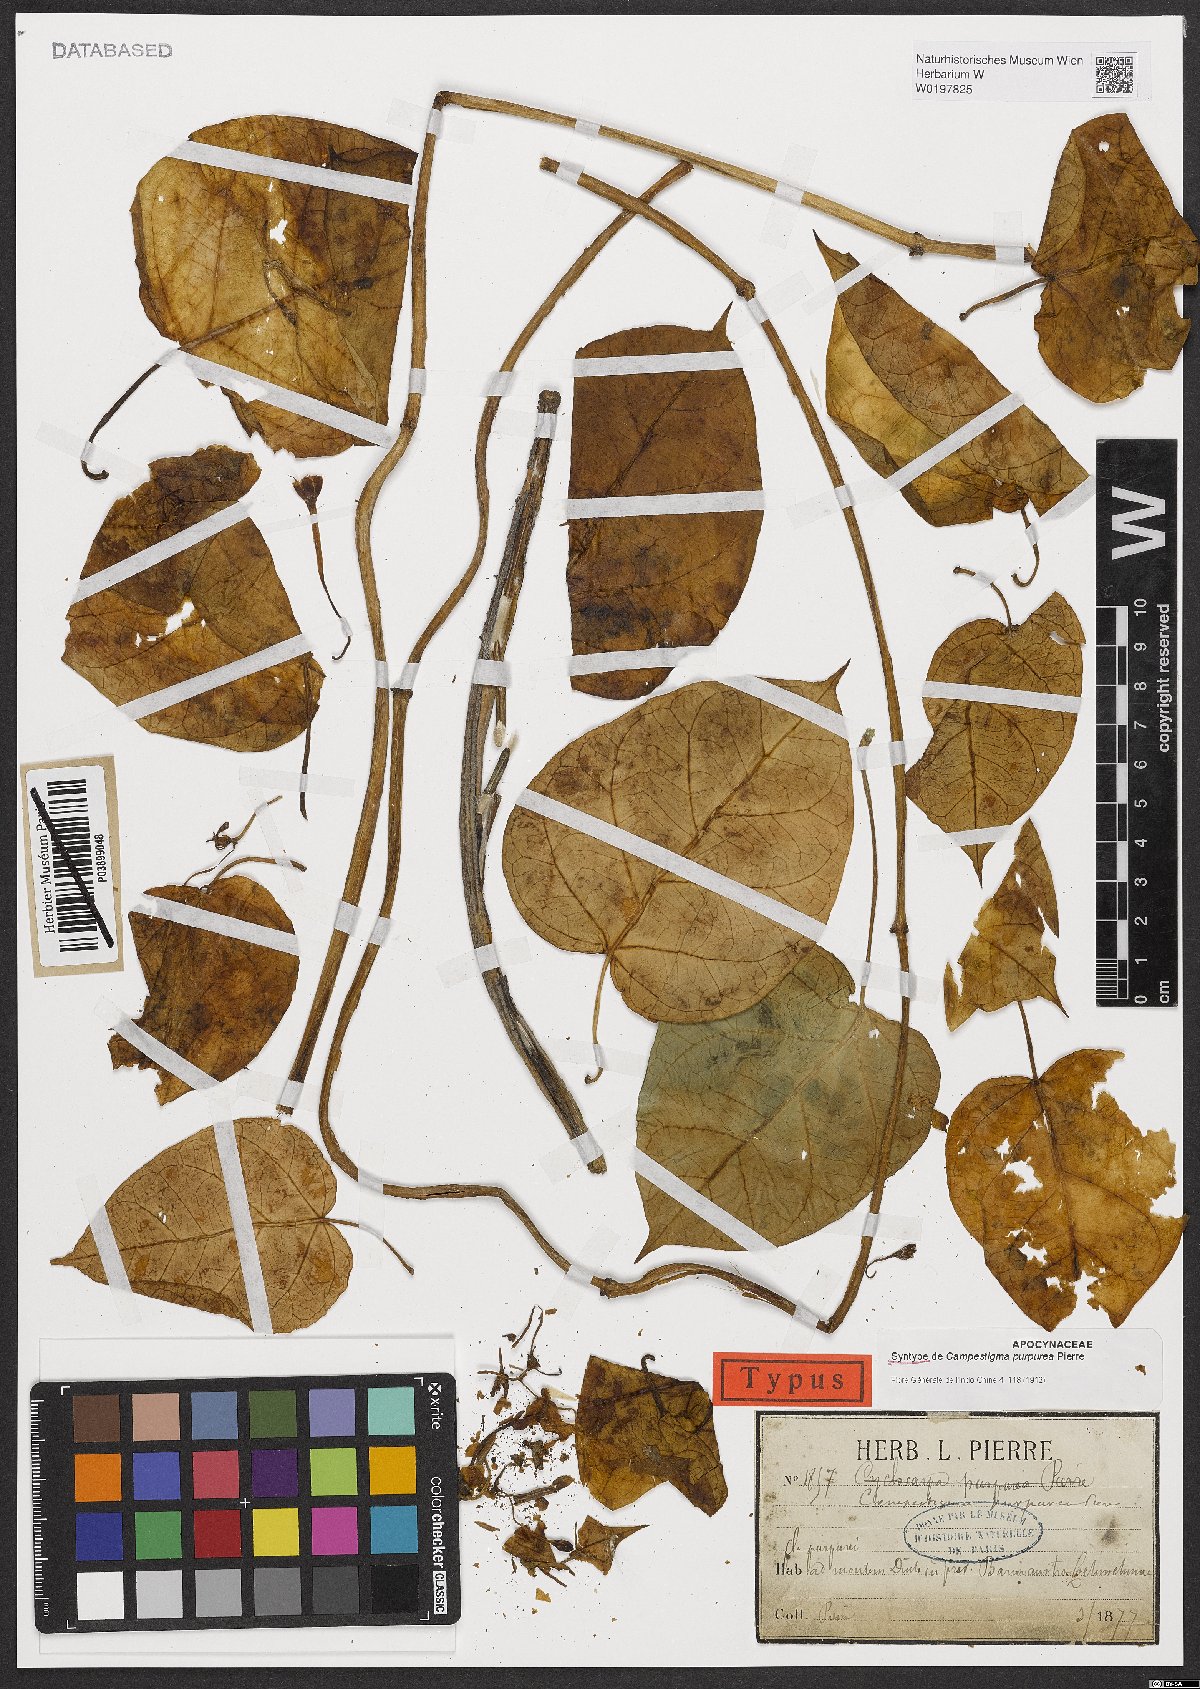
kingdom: Plantae
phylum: Tracheophyta
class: Magnoliopsida
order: Gentianales
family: Apocynaceae
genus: Campestigma
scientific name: Campestigma purpurea
